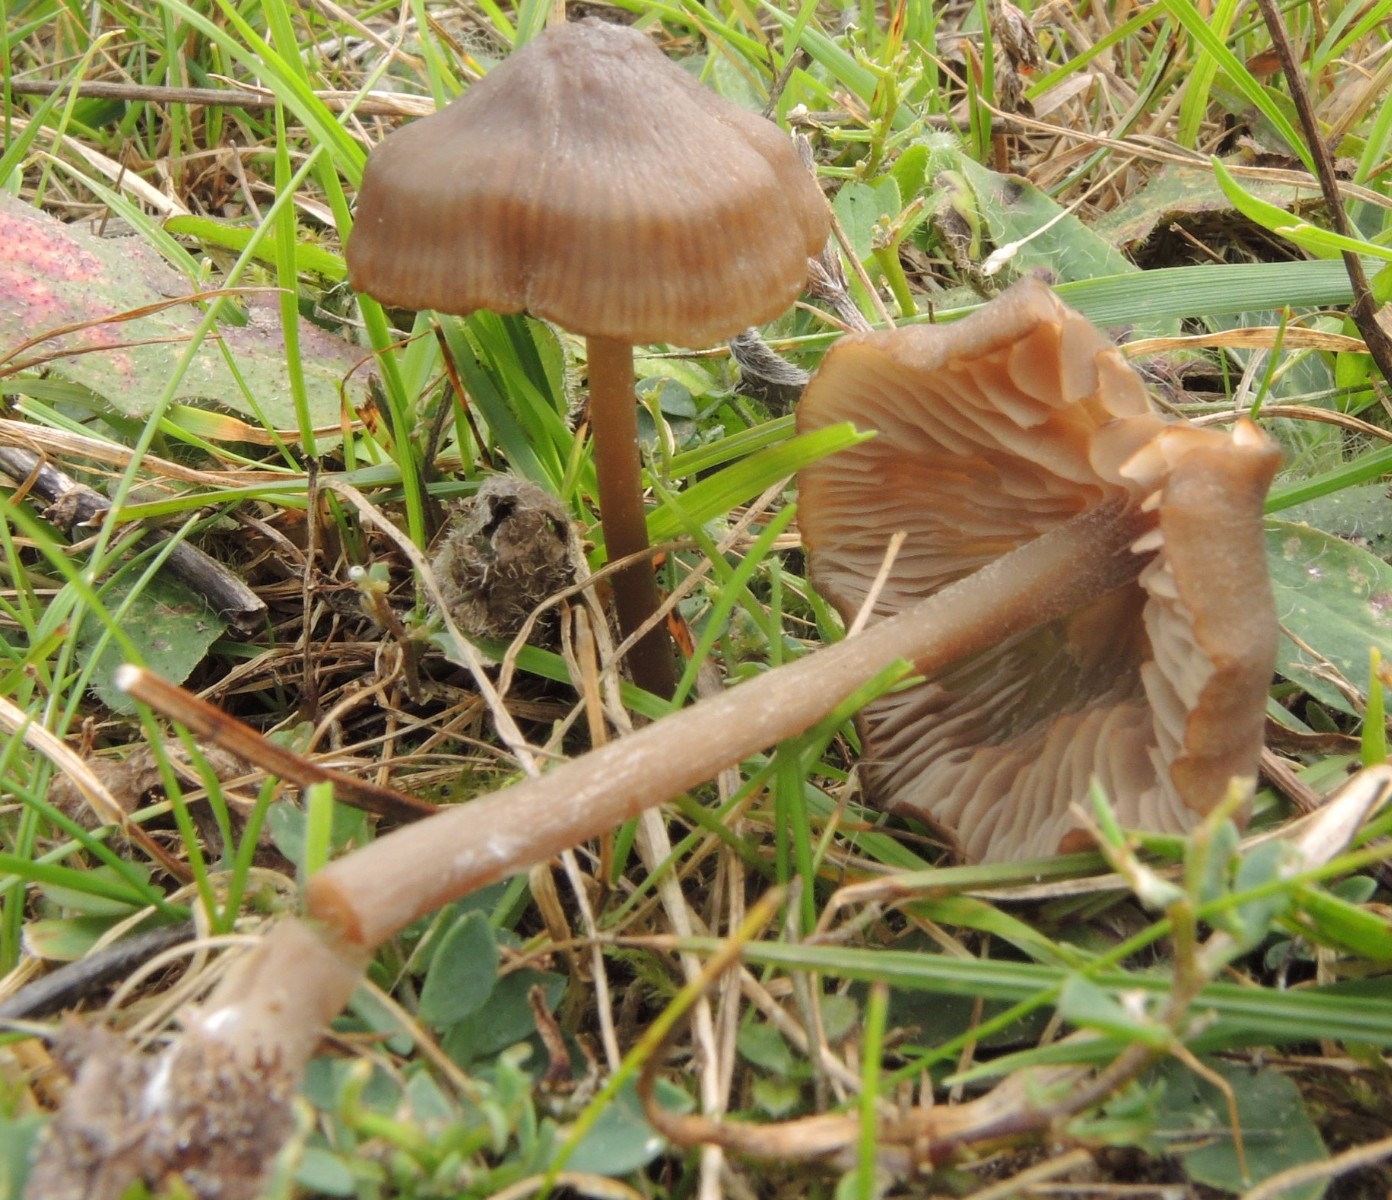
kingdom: Fungi
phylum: Basidiomycota
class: Agaricomycetes
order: Agaricales
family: Entolomataceae
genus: Entoloma
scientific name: Entoloma infula
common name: hvidbladet rødblad
